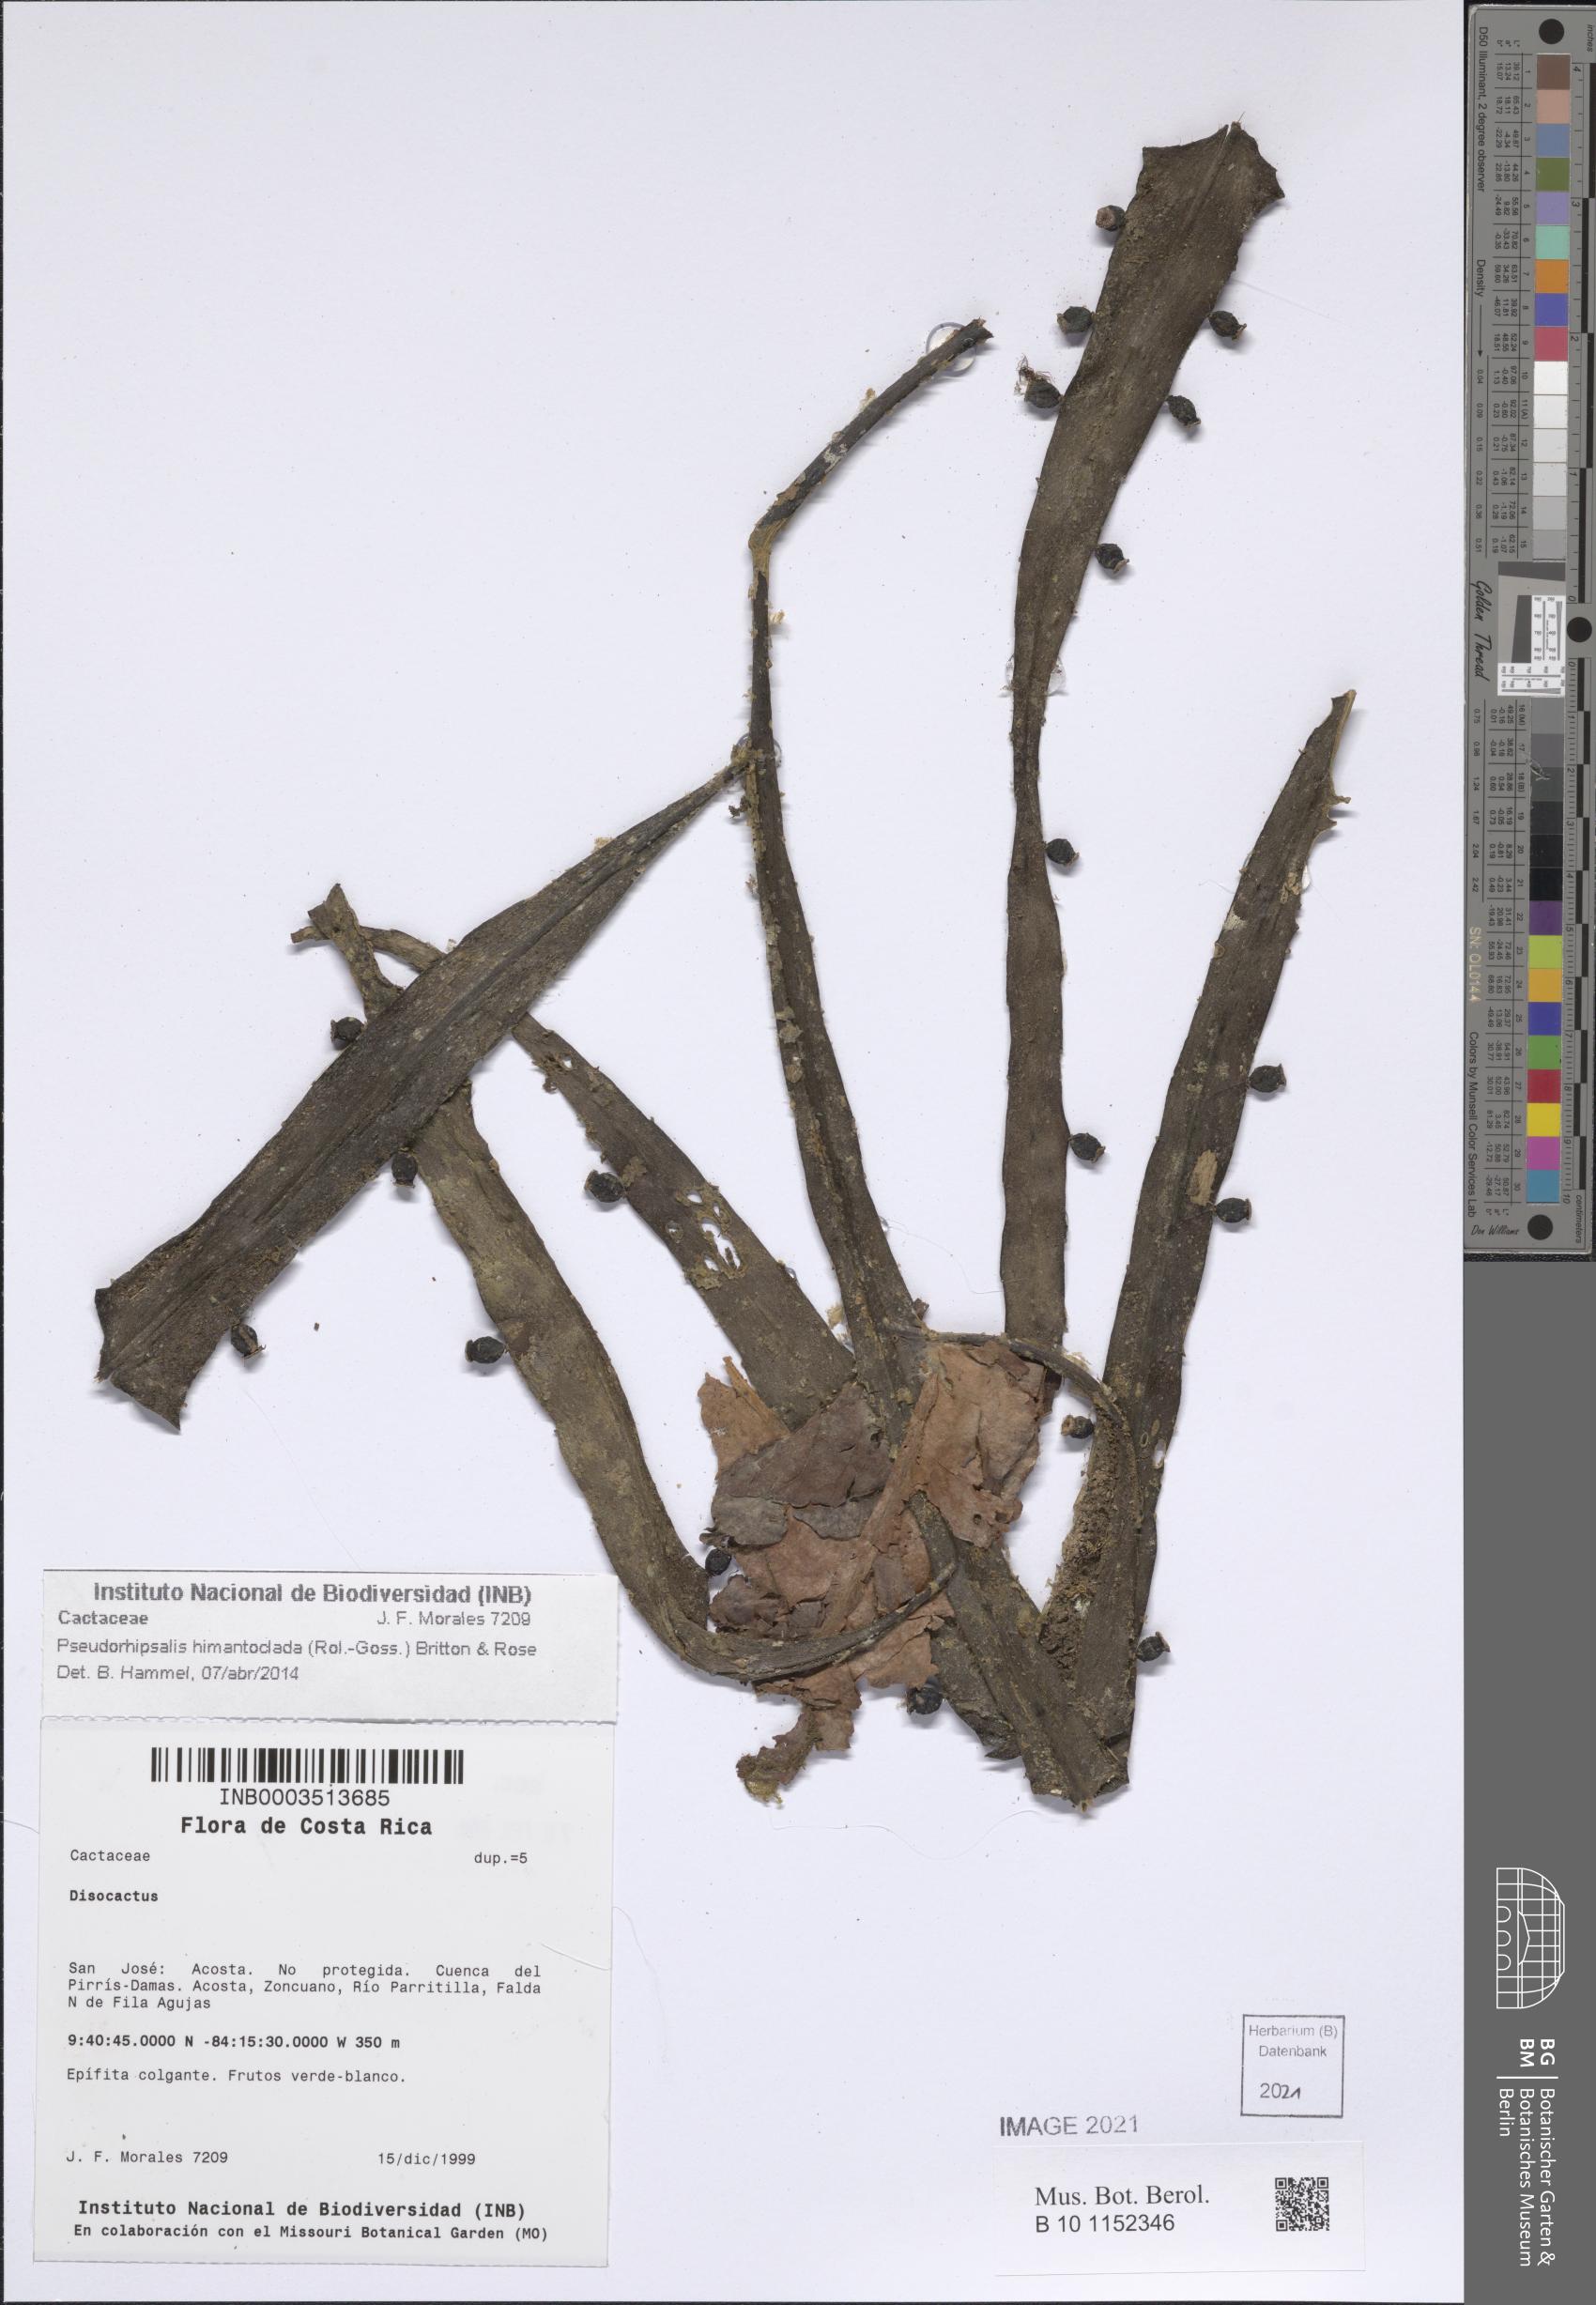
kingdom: Plantae
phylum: Tracheophyta
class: Magnoliopsida
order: Caryophyllales
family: Cactaceae
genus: Pseudorhipsalis
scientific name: Pseudorhipsalis himantoclada
